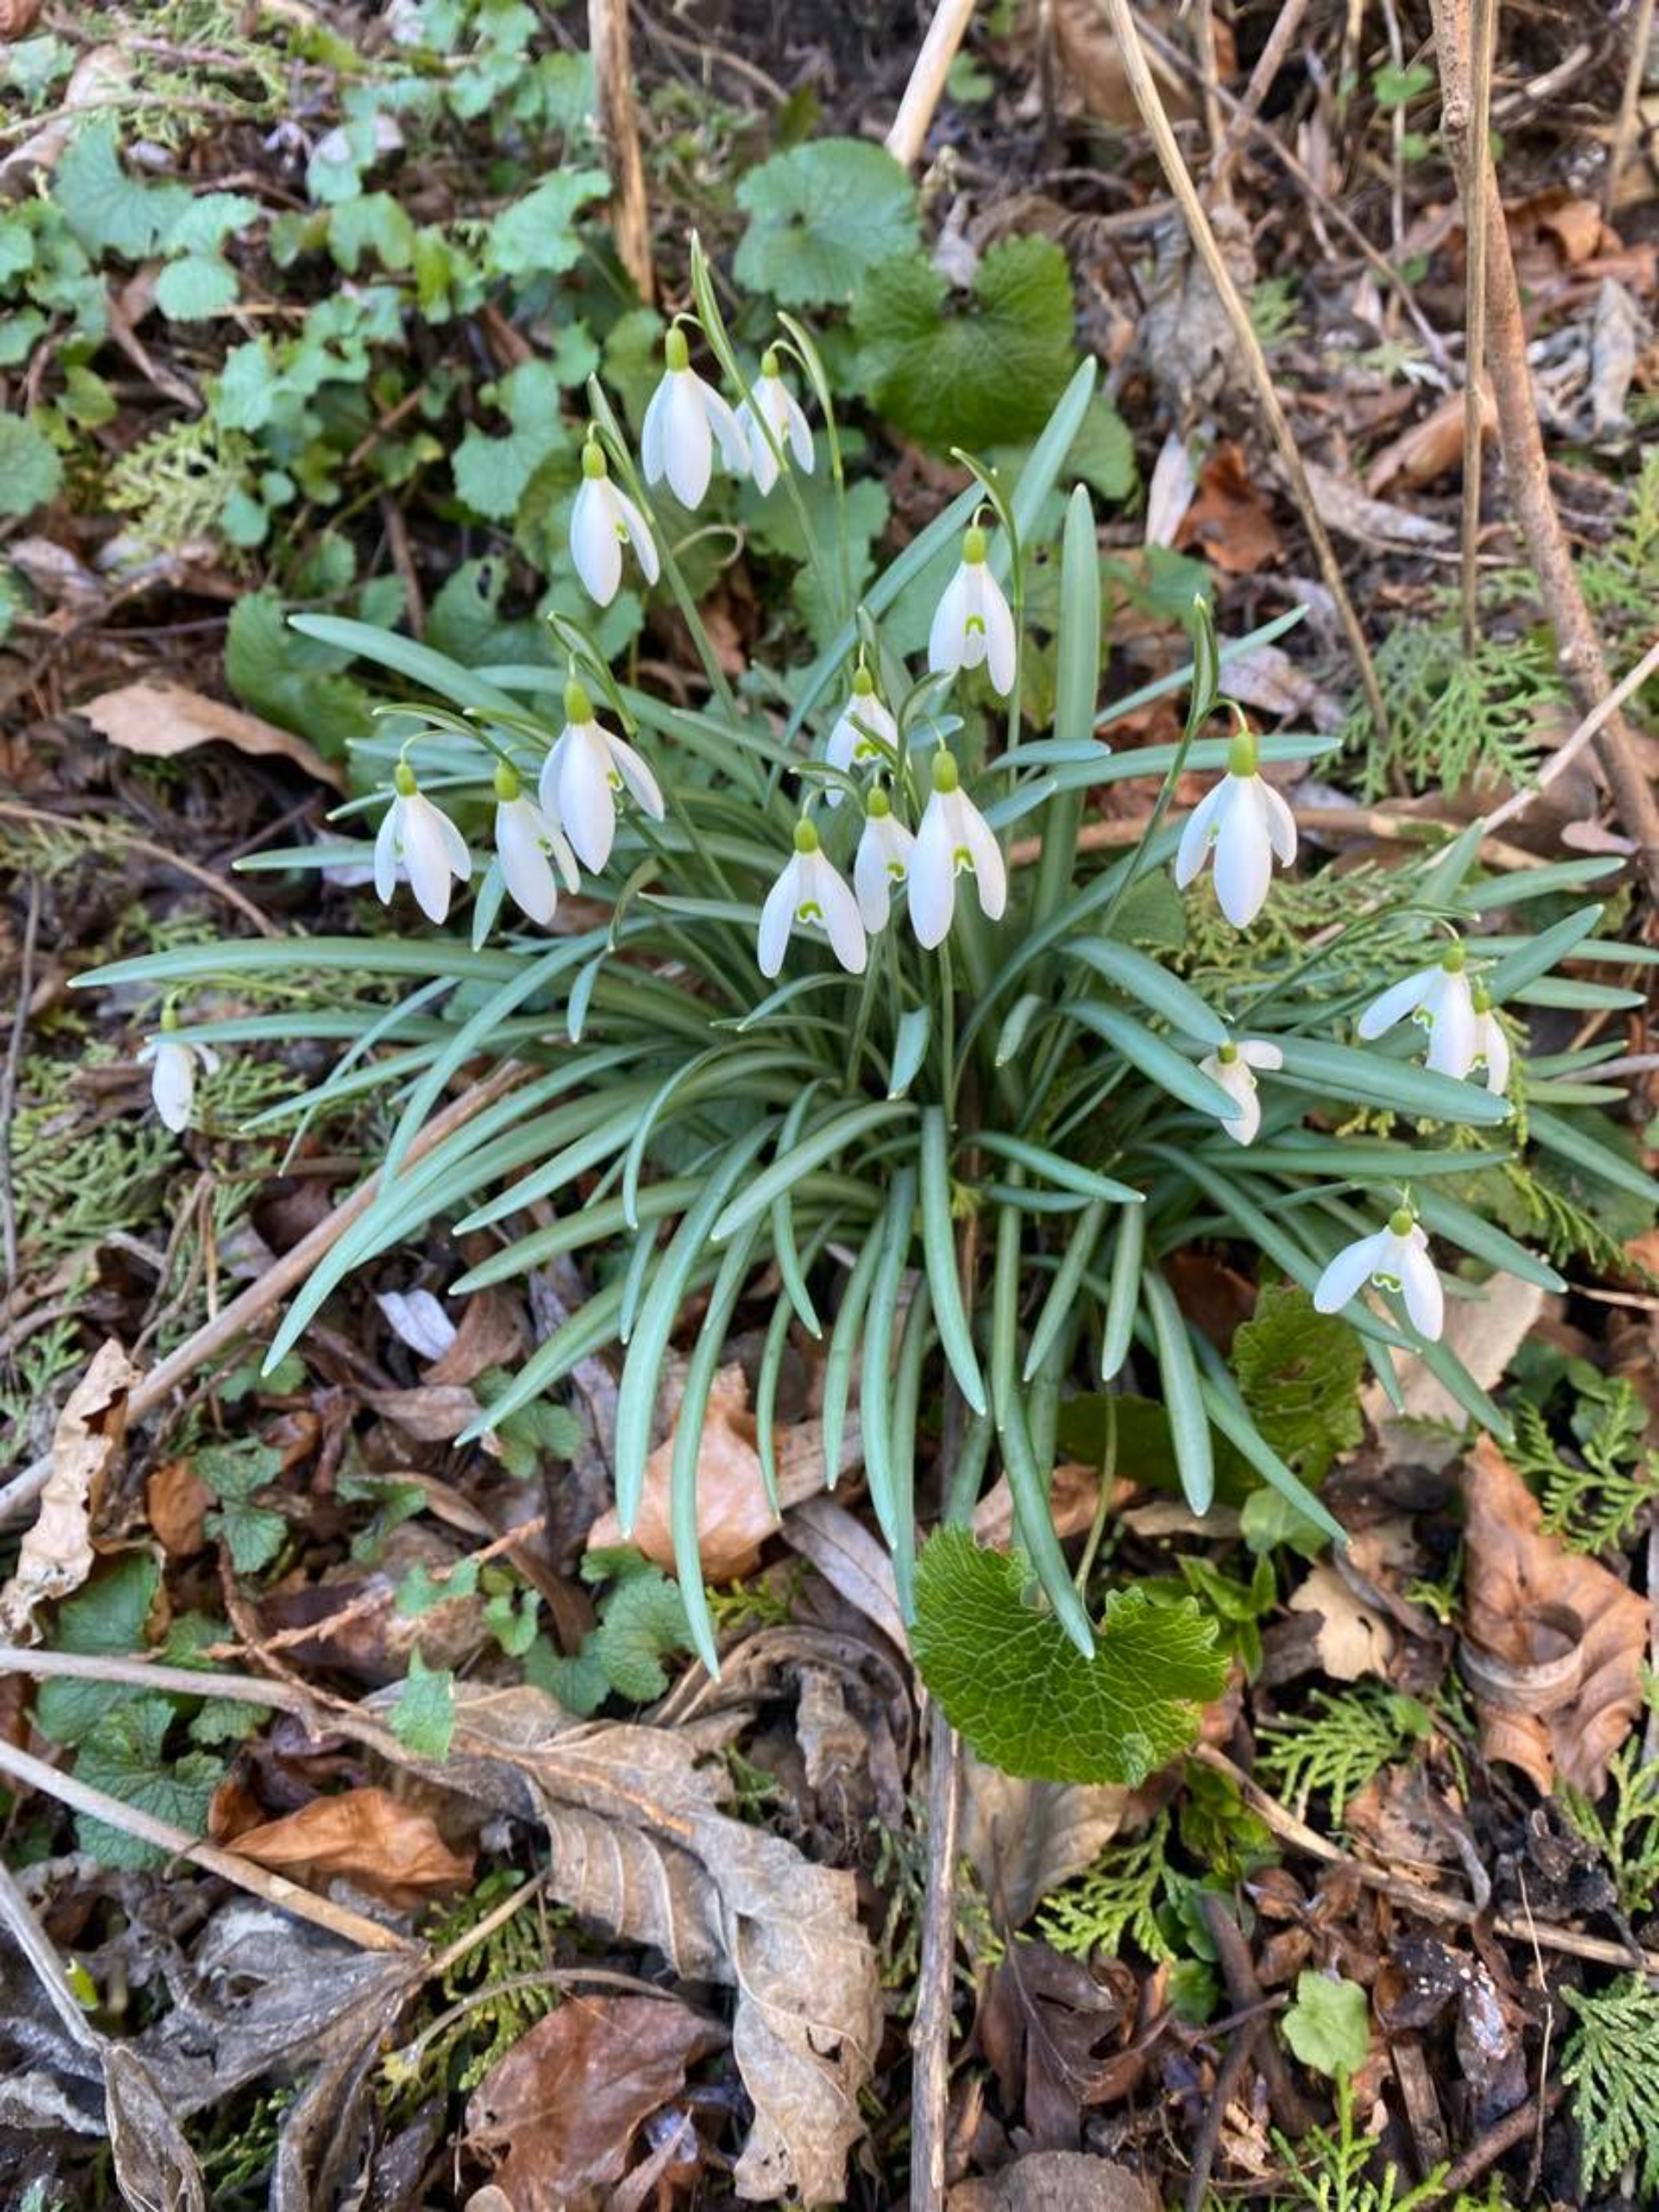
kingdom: Plantae
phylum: Tracheophyta
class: Liliopsida
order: Asparagales
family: Amaryllidaceae
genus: Galanthus
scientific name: Galanthus nivalis
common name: Vintergæk
